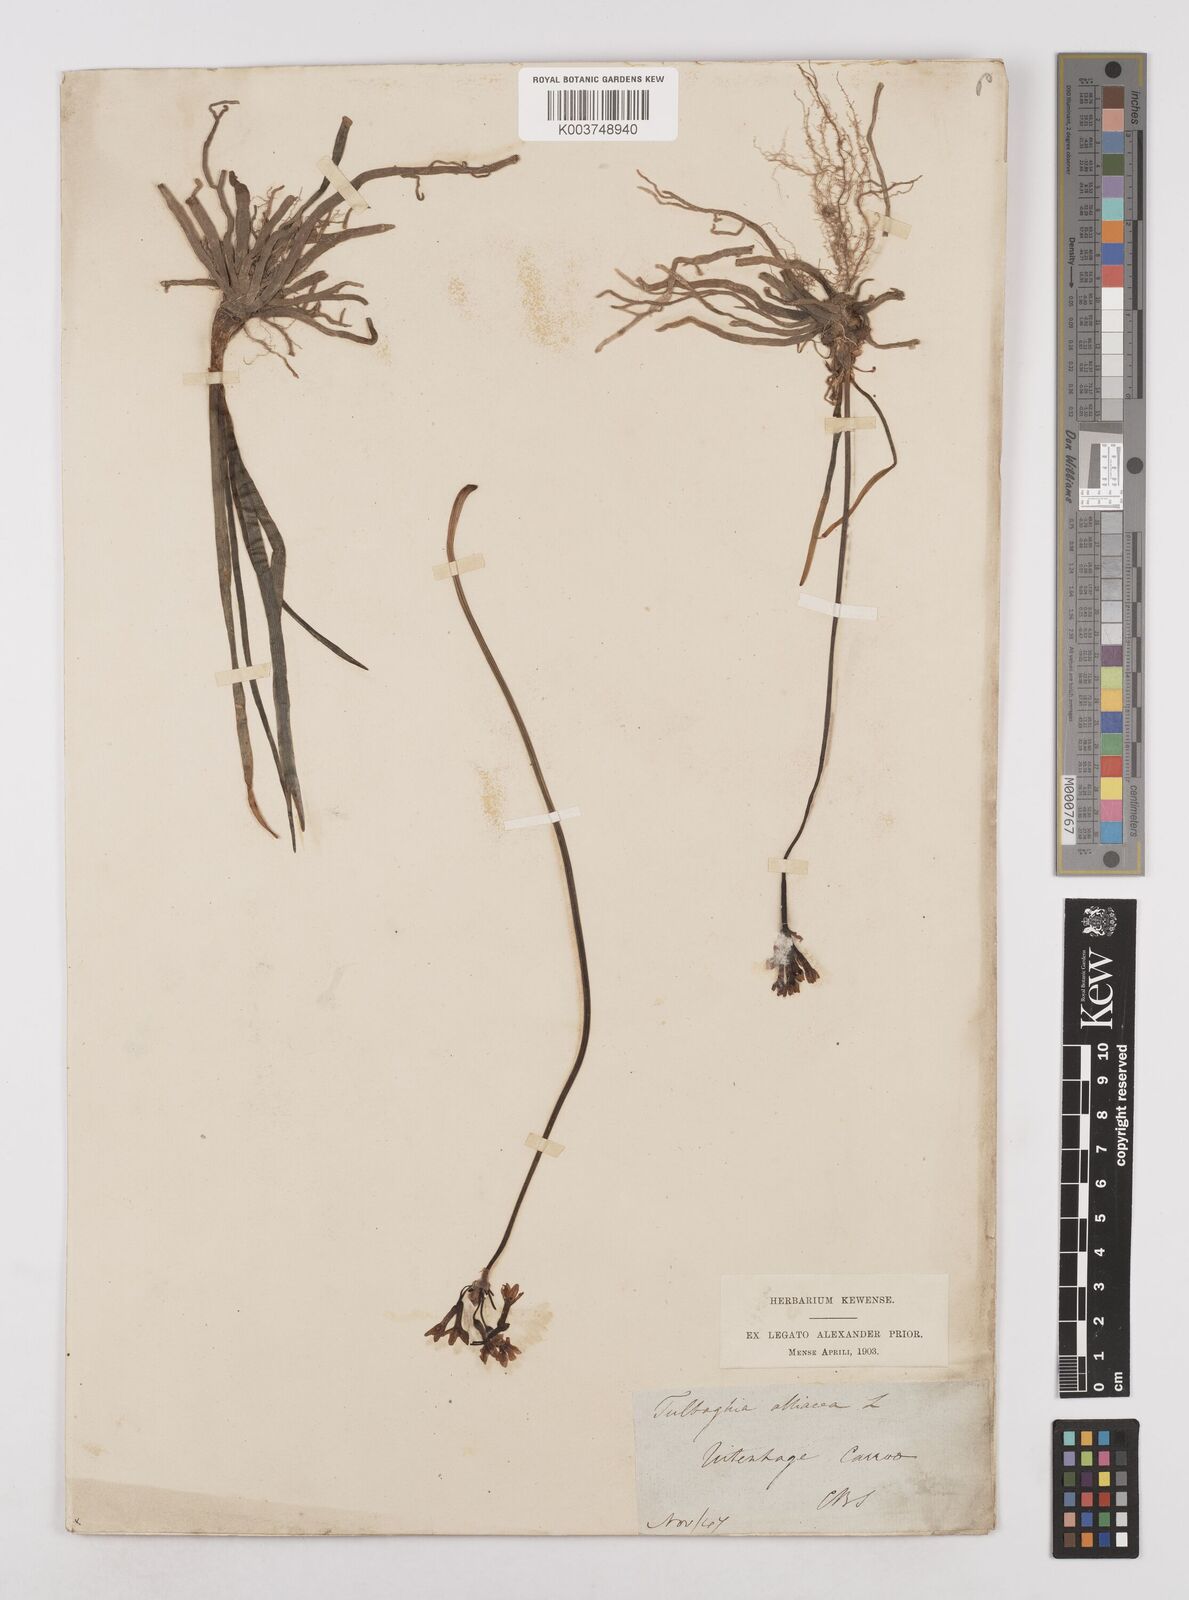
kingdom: Plantae
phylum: Tracheophyta
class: Liliopsida
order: Asparagales
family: Amaryllidaceae
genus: Tulbaghia
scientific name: Tulbaghia alliacea
